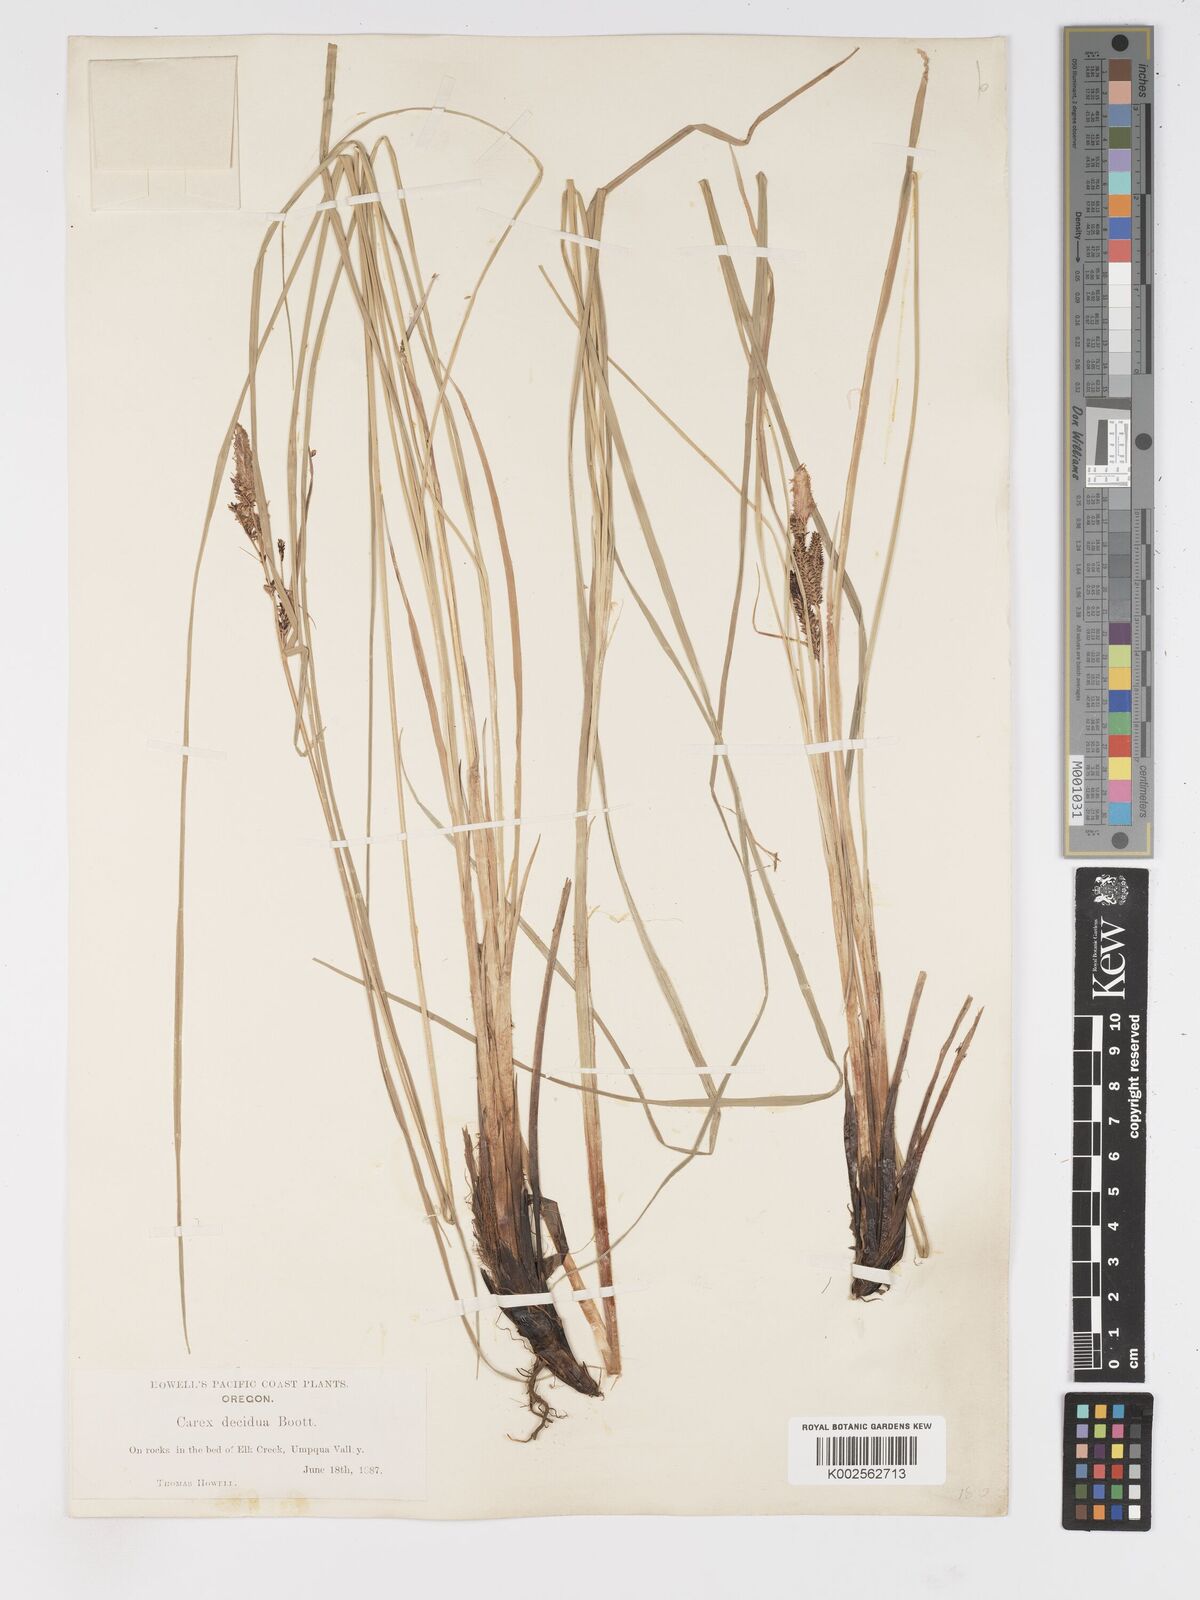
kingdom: Plantae
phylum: Tracheophyta
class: Liliopsida
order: Poales
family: Cyperaceae
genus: Carex
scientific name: Carex nudata
